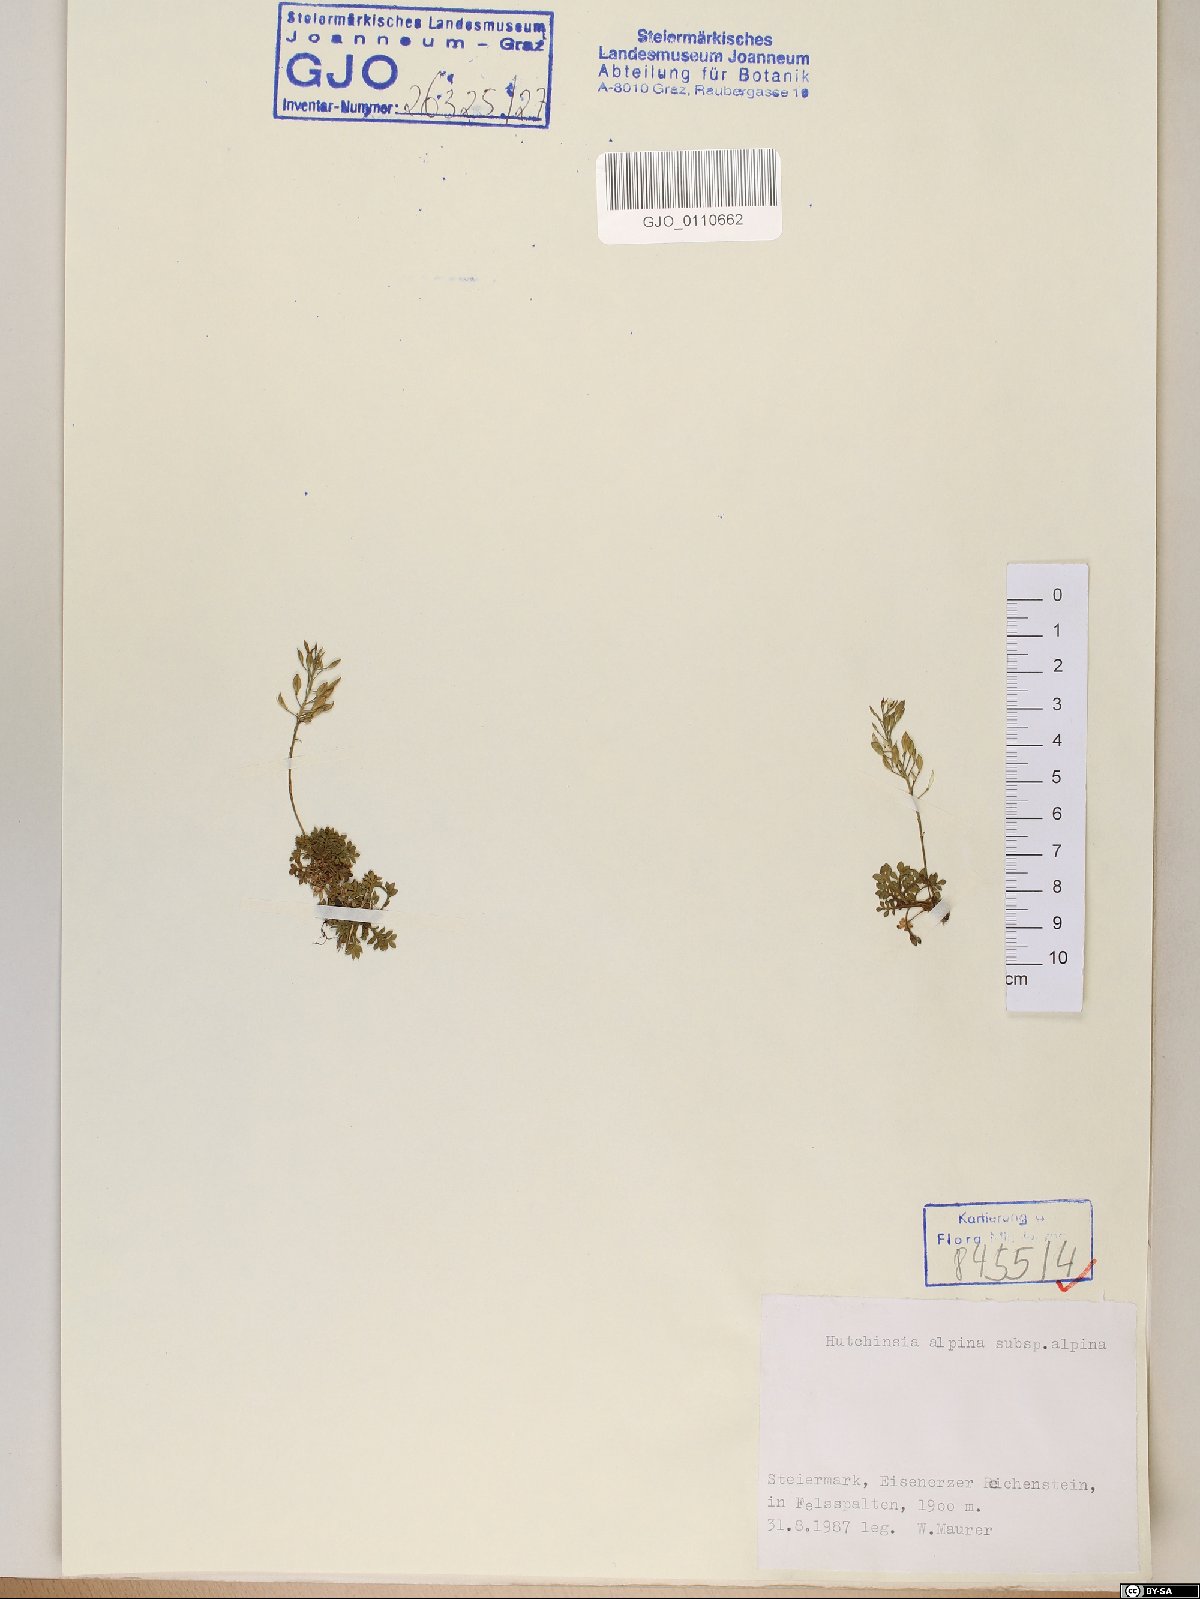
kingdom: Plantae
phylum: Tracheophyta
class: Magnoliopsida
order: Brassicales
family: Brassicaceae
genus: Hornungia
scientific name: Hornungia alpina
